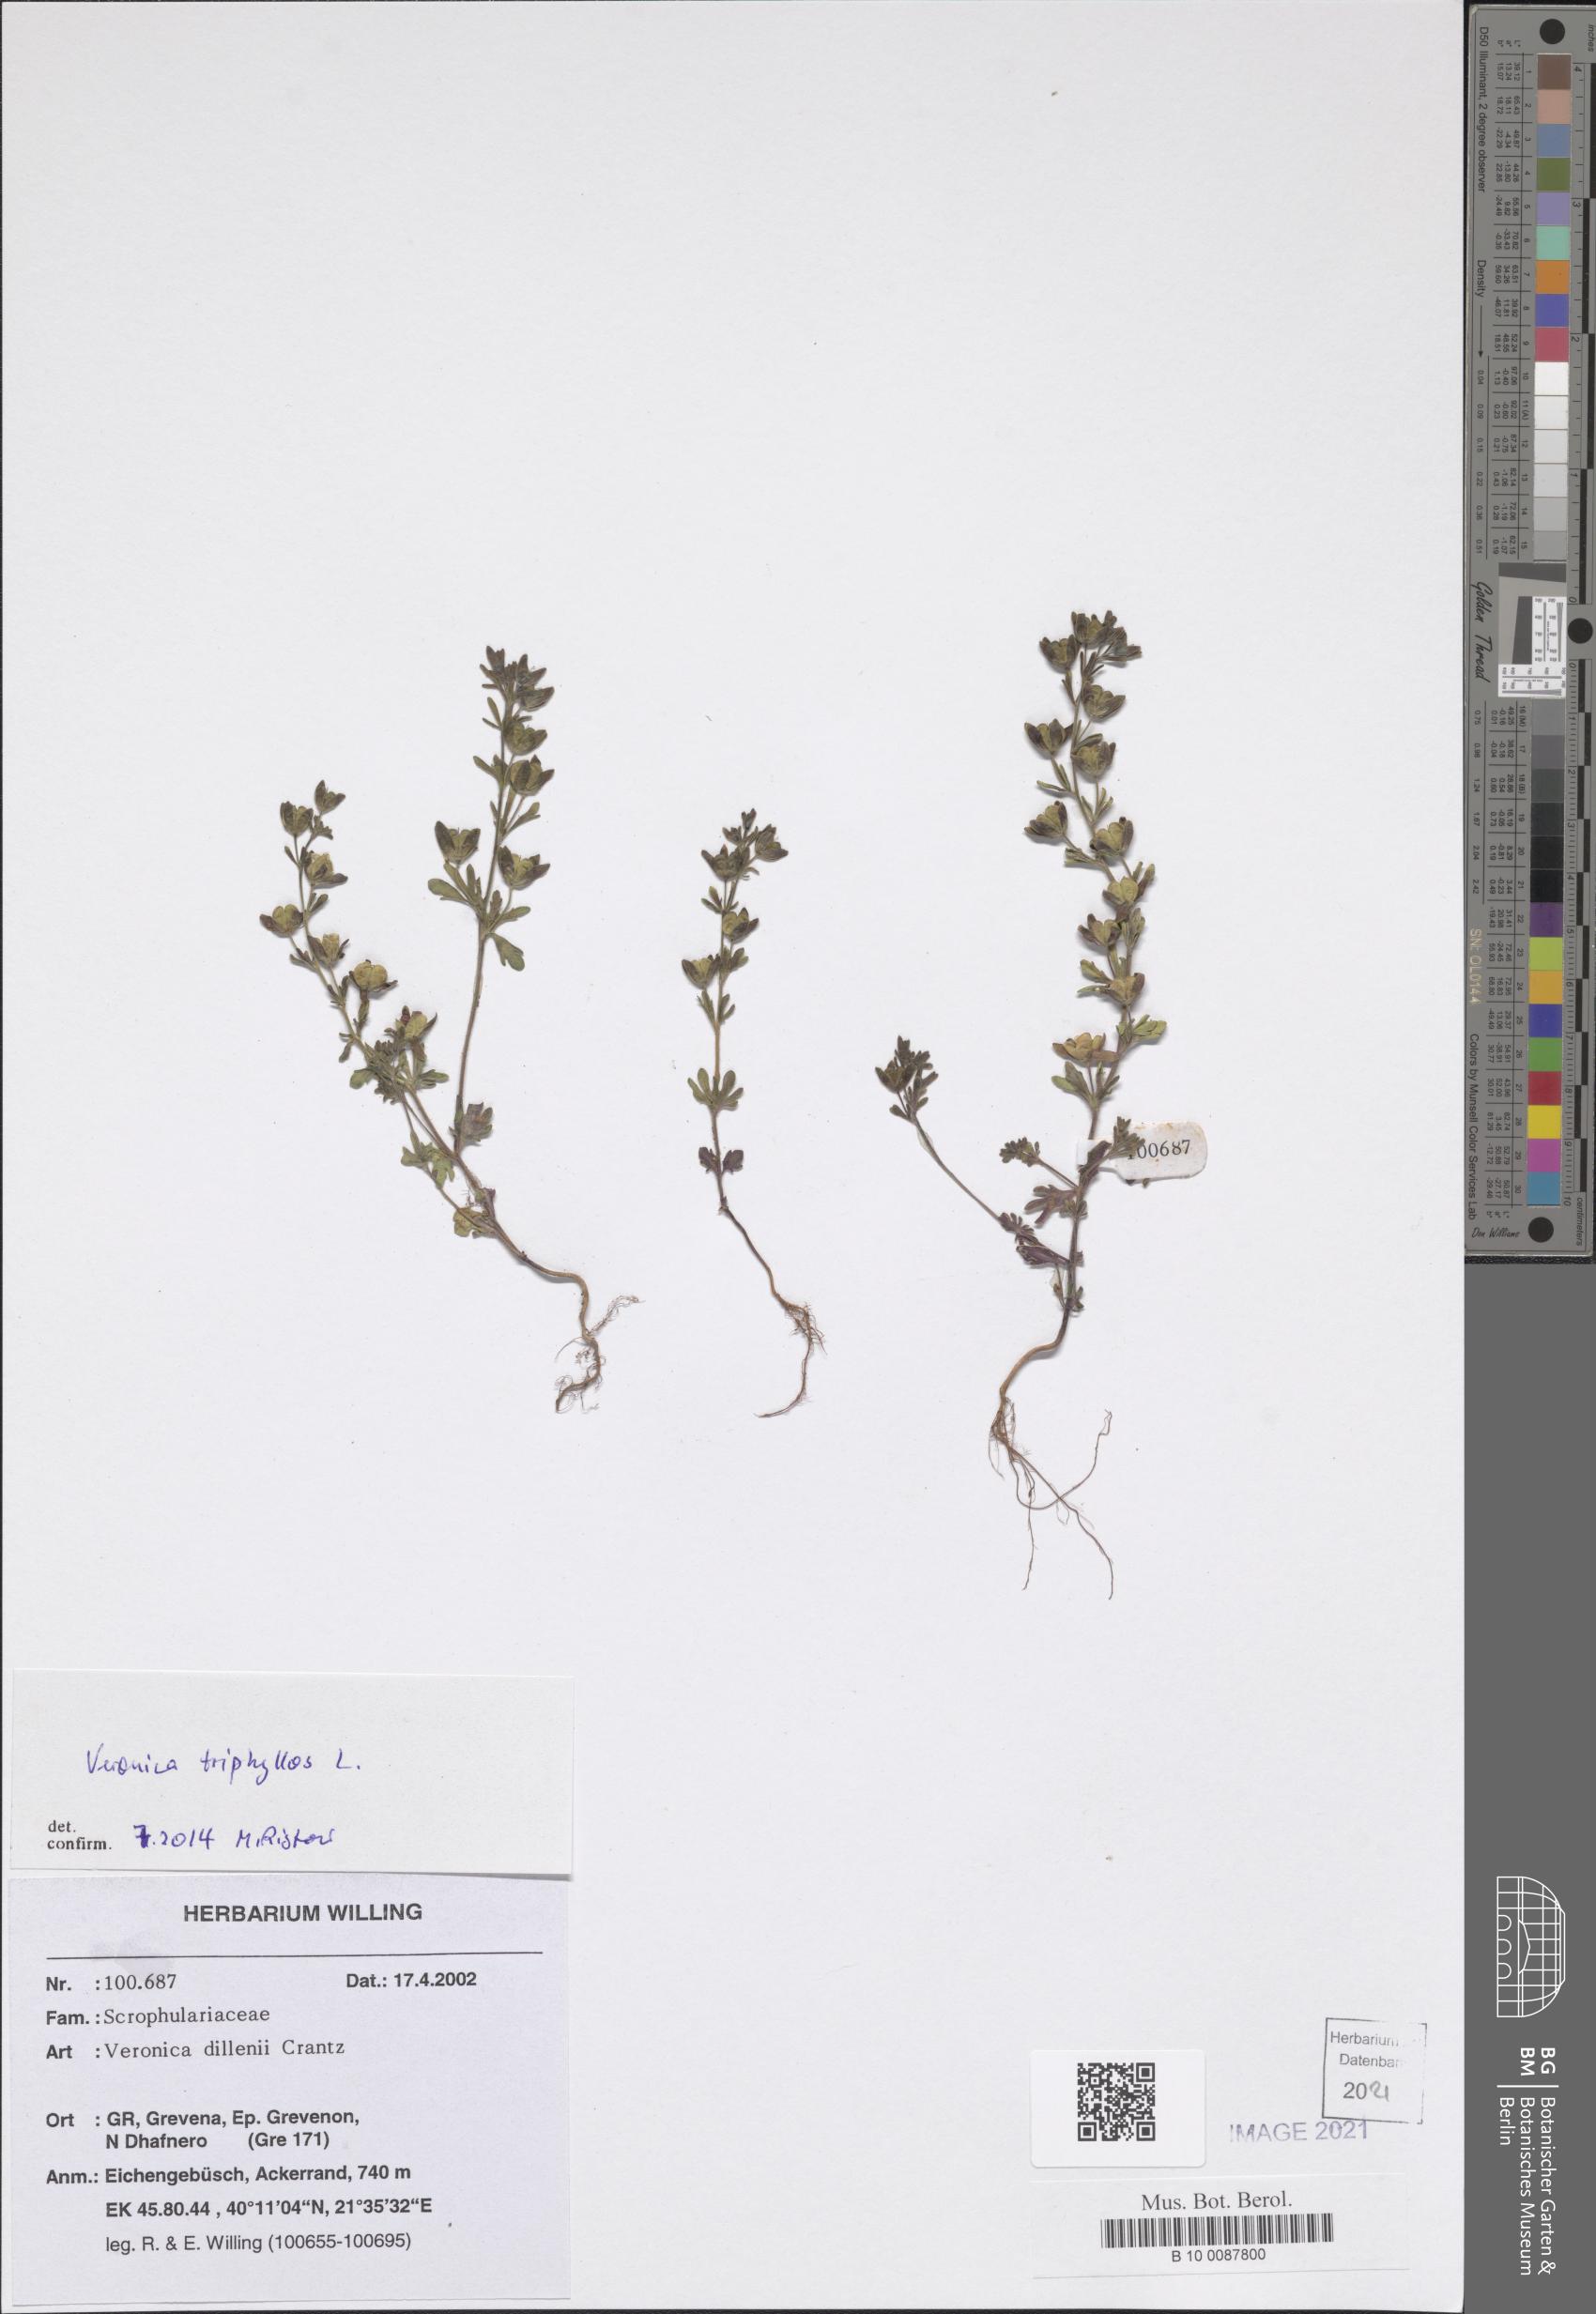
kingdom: Plantae
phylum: Tracheophyta
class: Magnoliopsida
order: Lamiales
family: Plantaginaceae
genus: Veronica
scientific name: Veronica triphyllos
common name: Fingered speedwell
